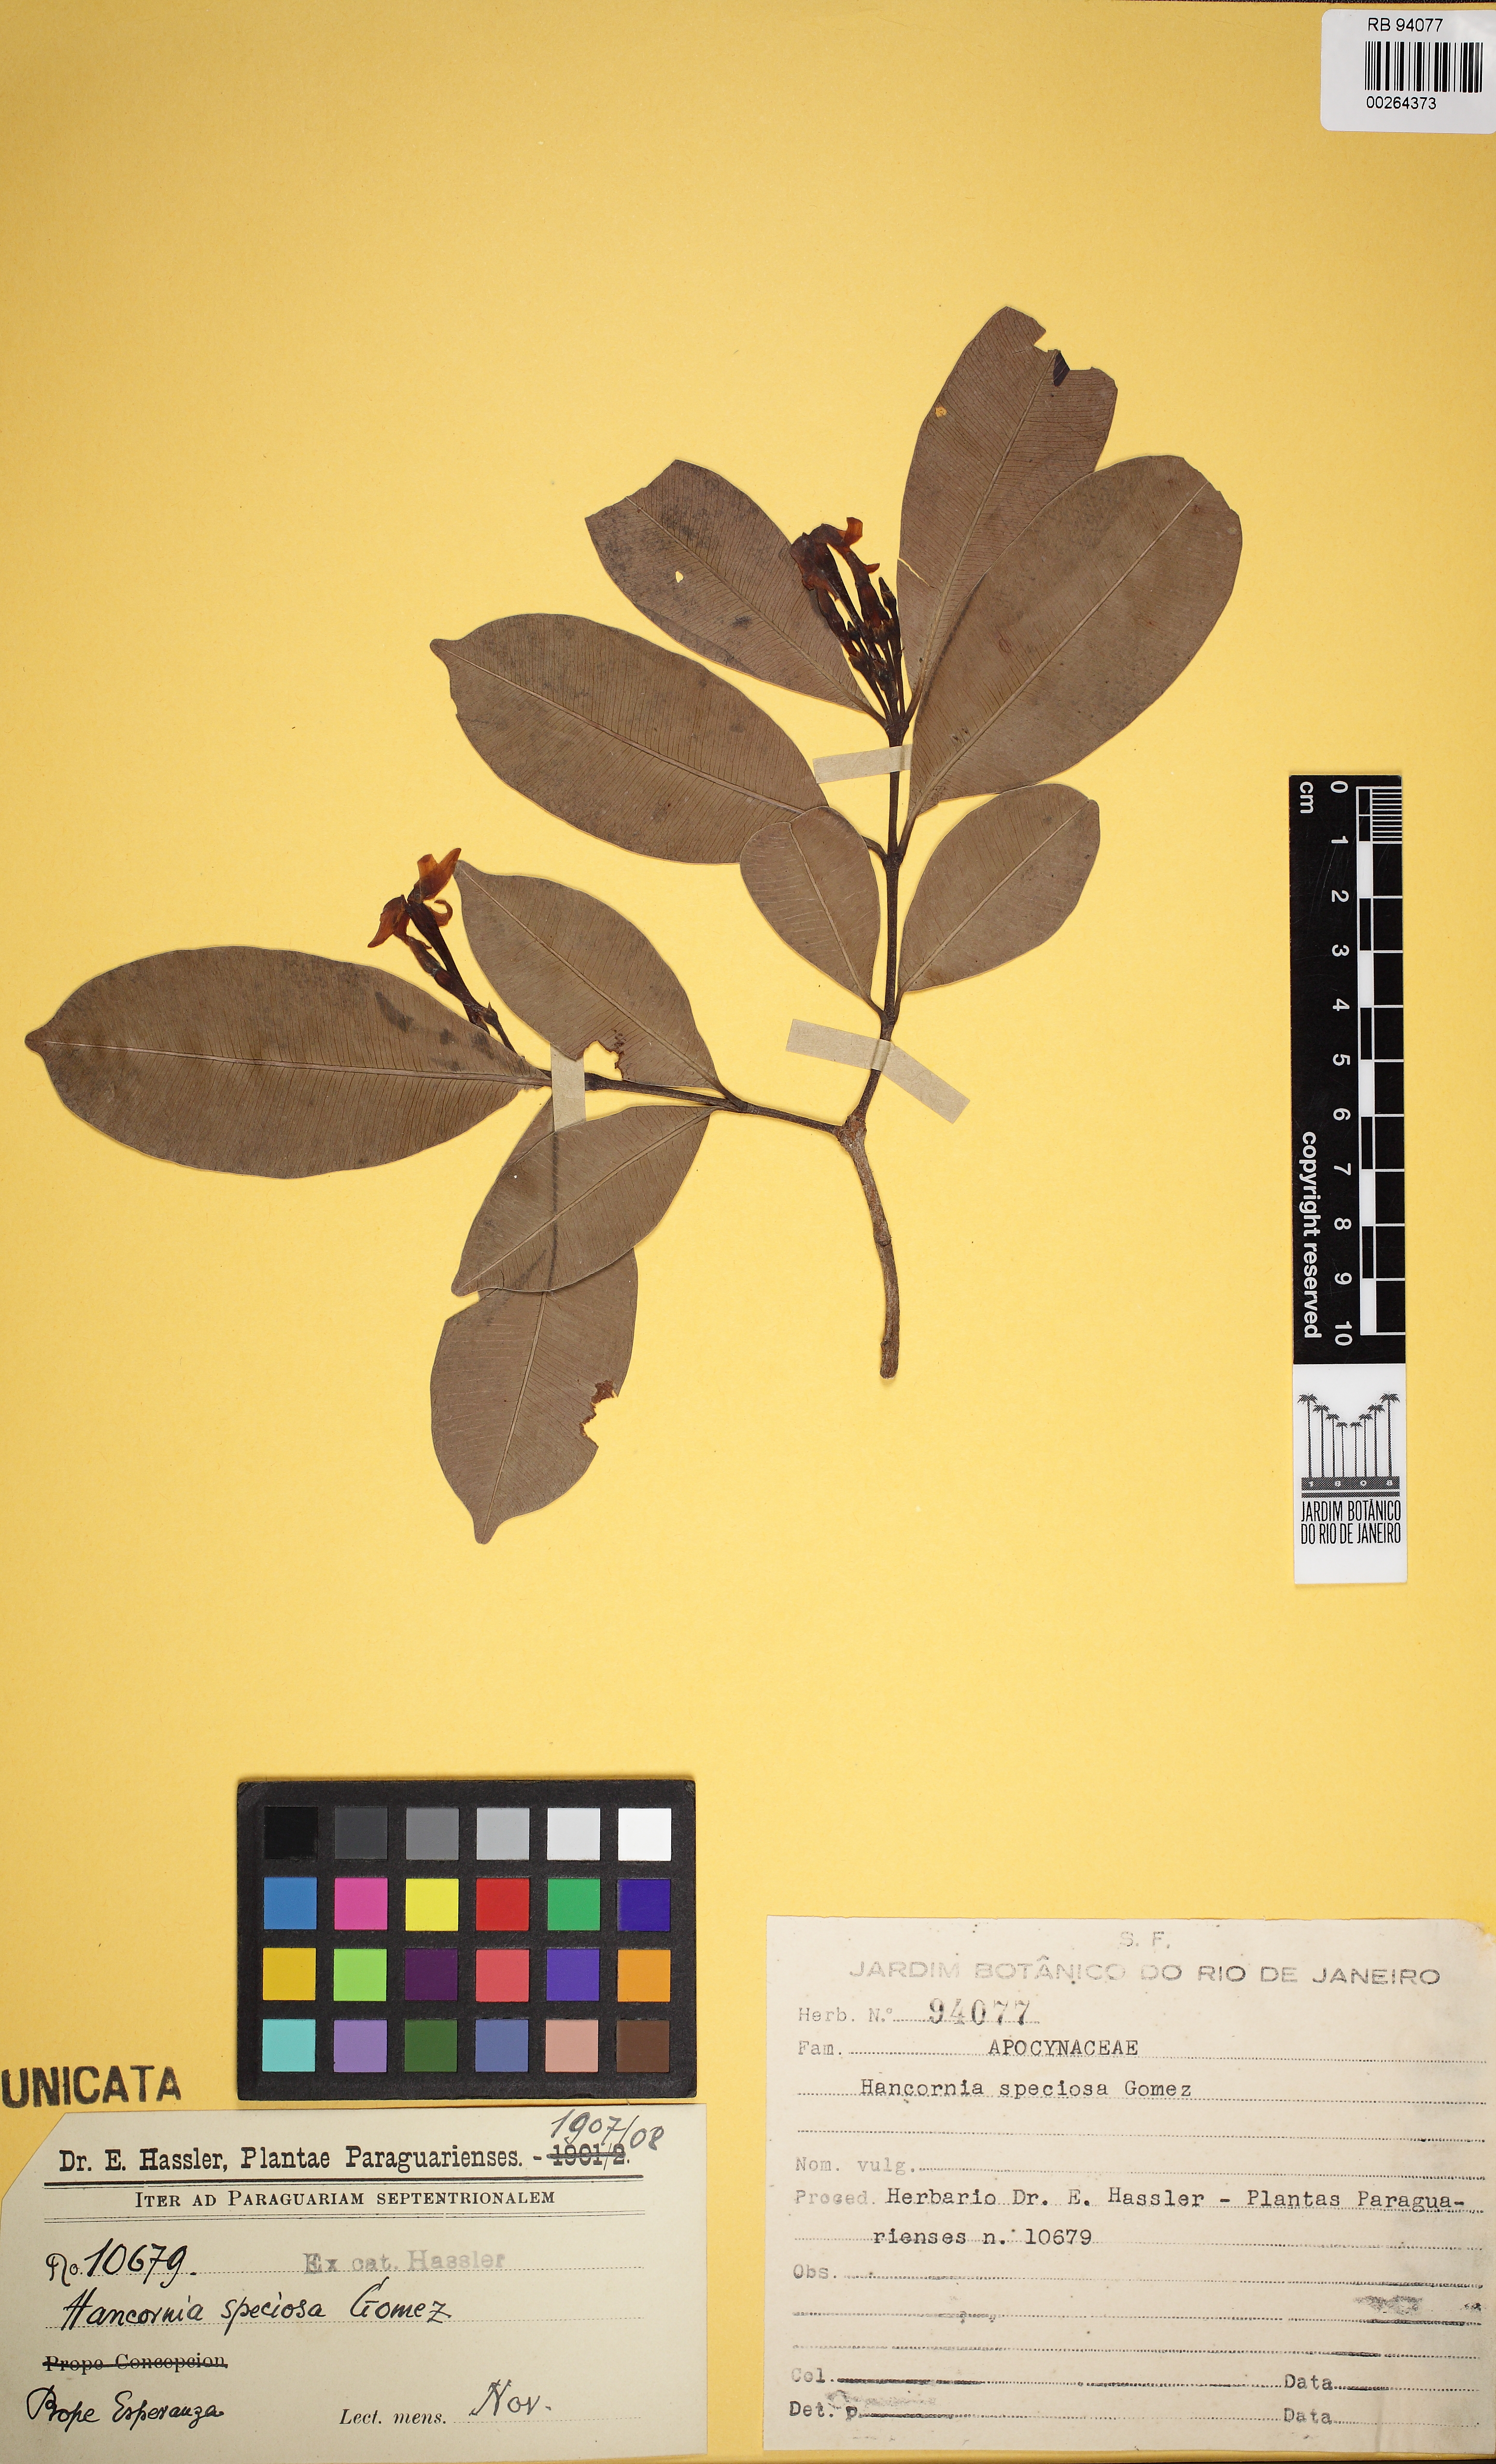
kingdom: Plantae
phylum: Tracheophyta
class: Magnoliopsida
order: Gentianales
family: Apocynaceae
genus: Hancornia
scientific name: Hancornia speciosa
